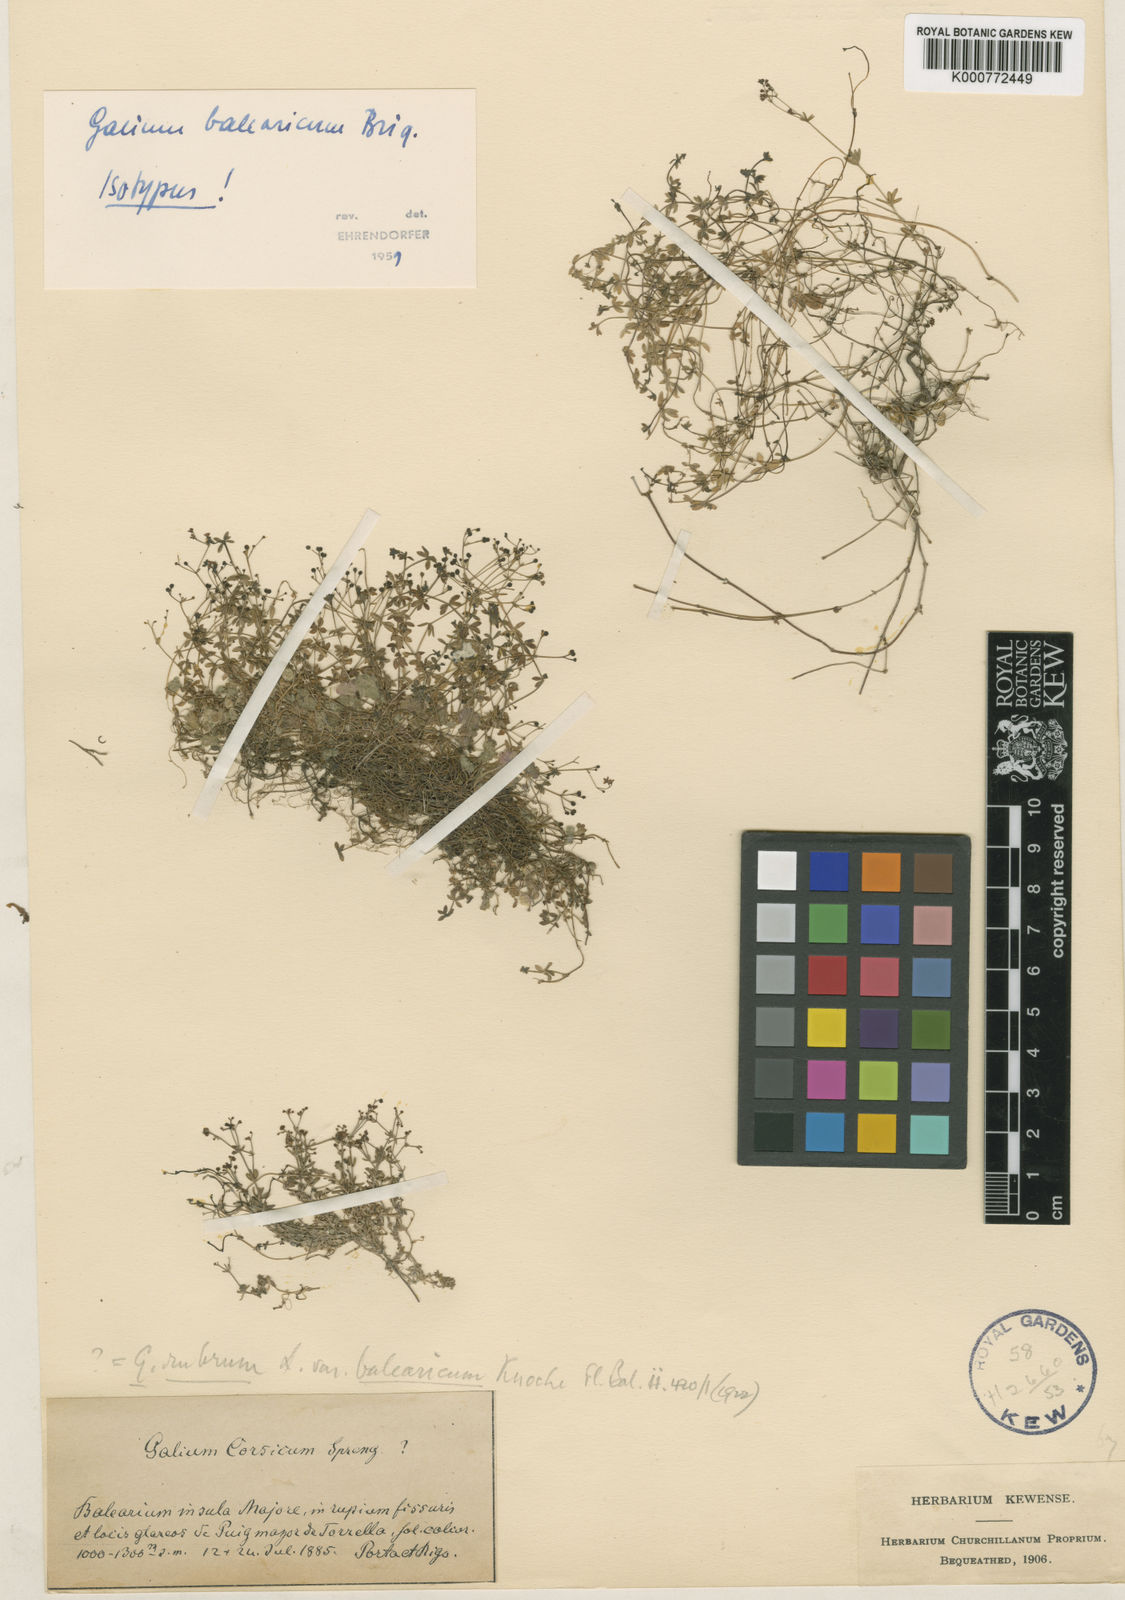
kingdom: Plantae
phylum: Tracheophyta
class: Magnoliopsida
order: Gentianales
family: Rubiaceae
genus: Galium
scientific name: Galium balearicum
